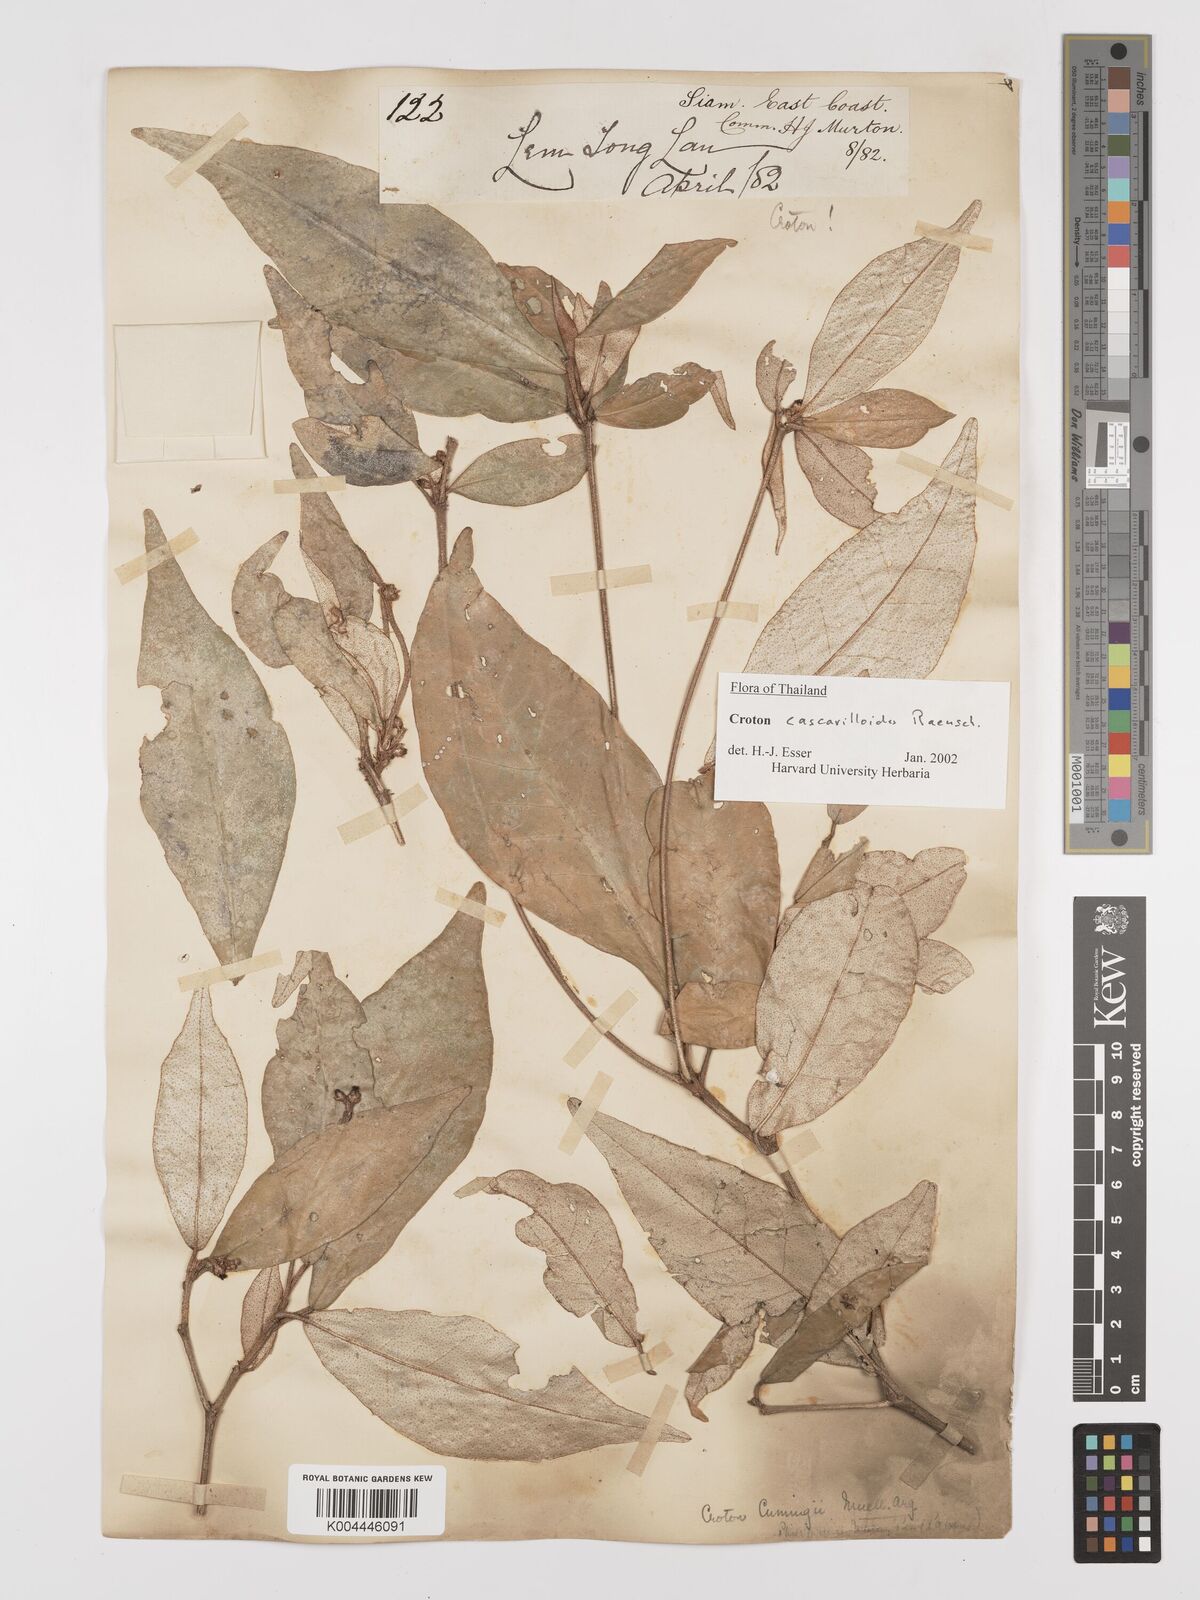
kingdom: Plantae
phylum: Tracheophyta
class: Magnoliopsida
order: Malpighiales
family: Euphorbiaceae
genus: Croton
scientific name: Croton
